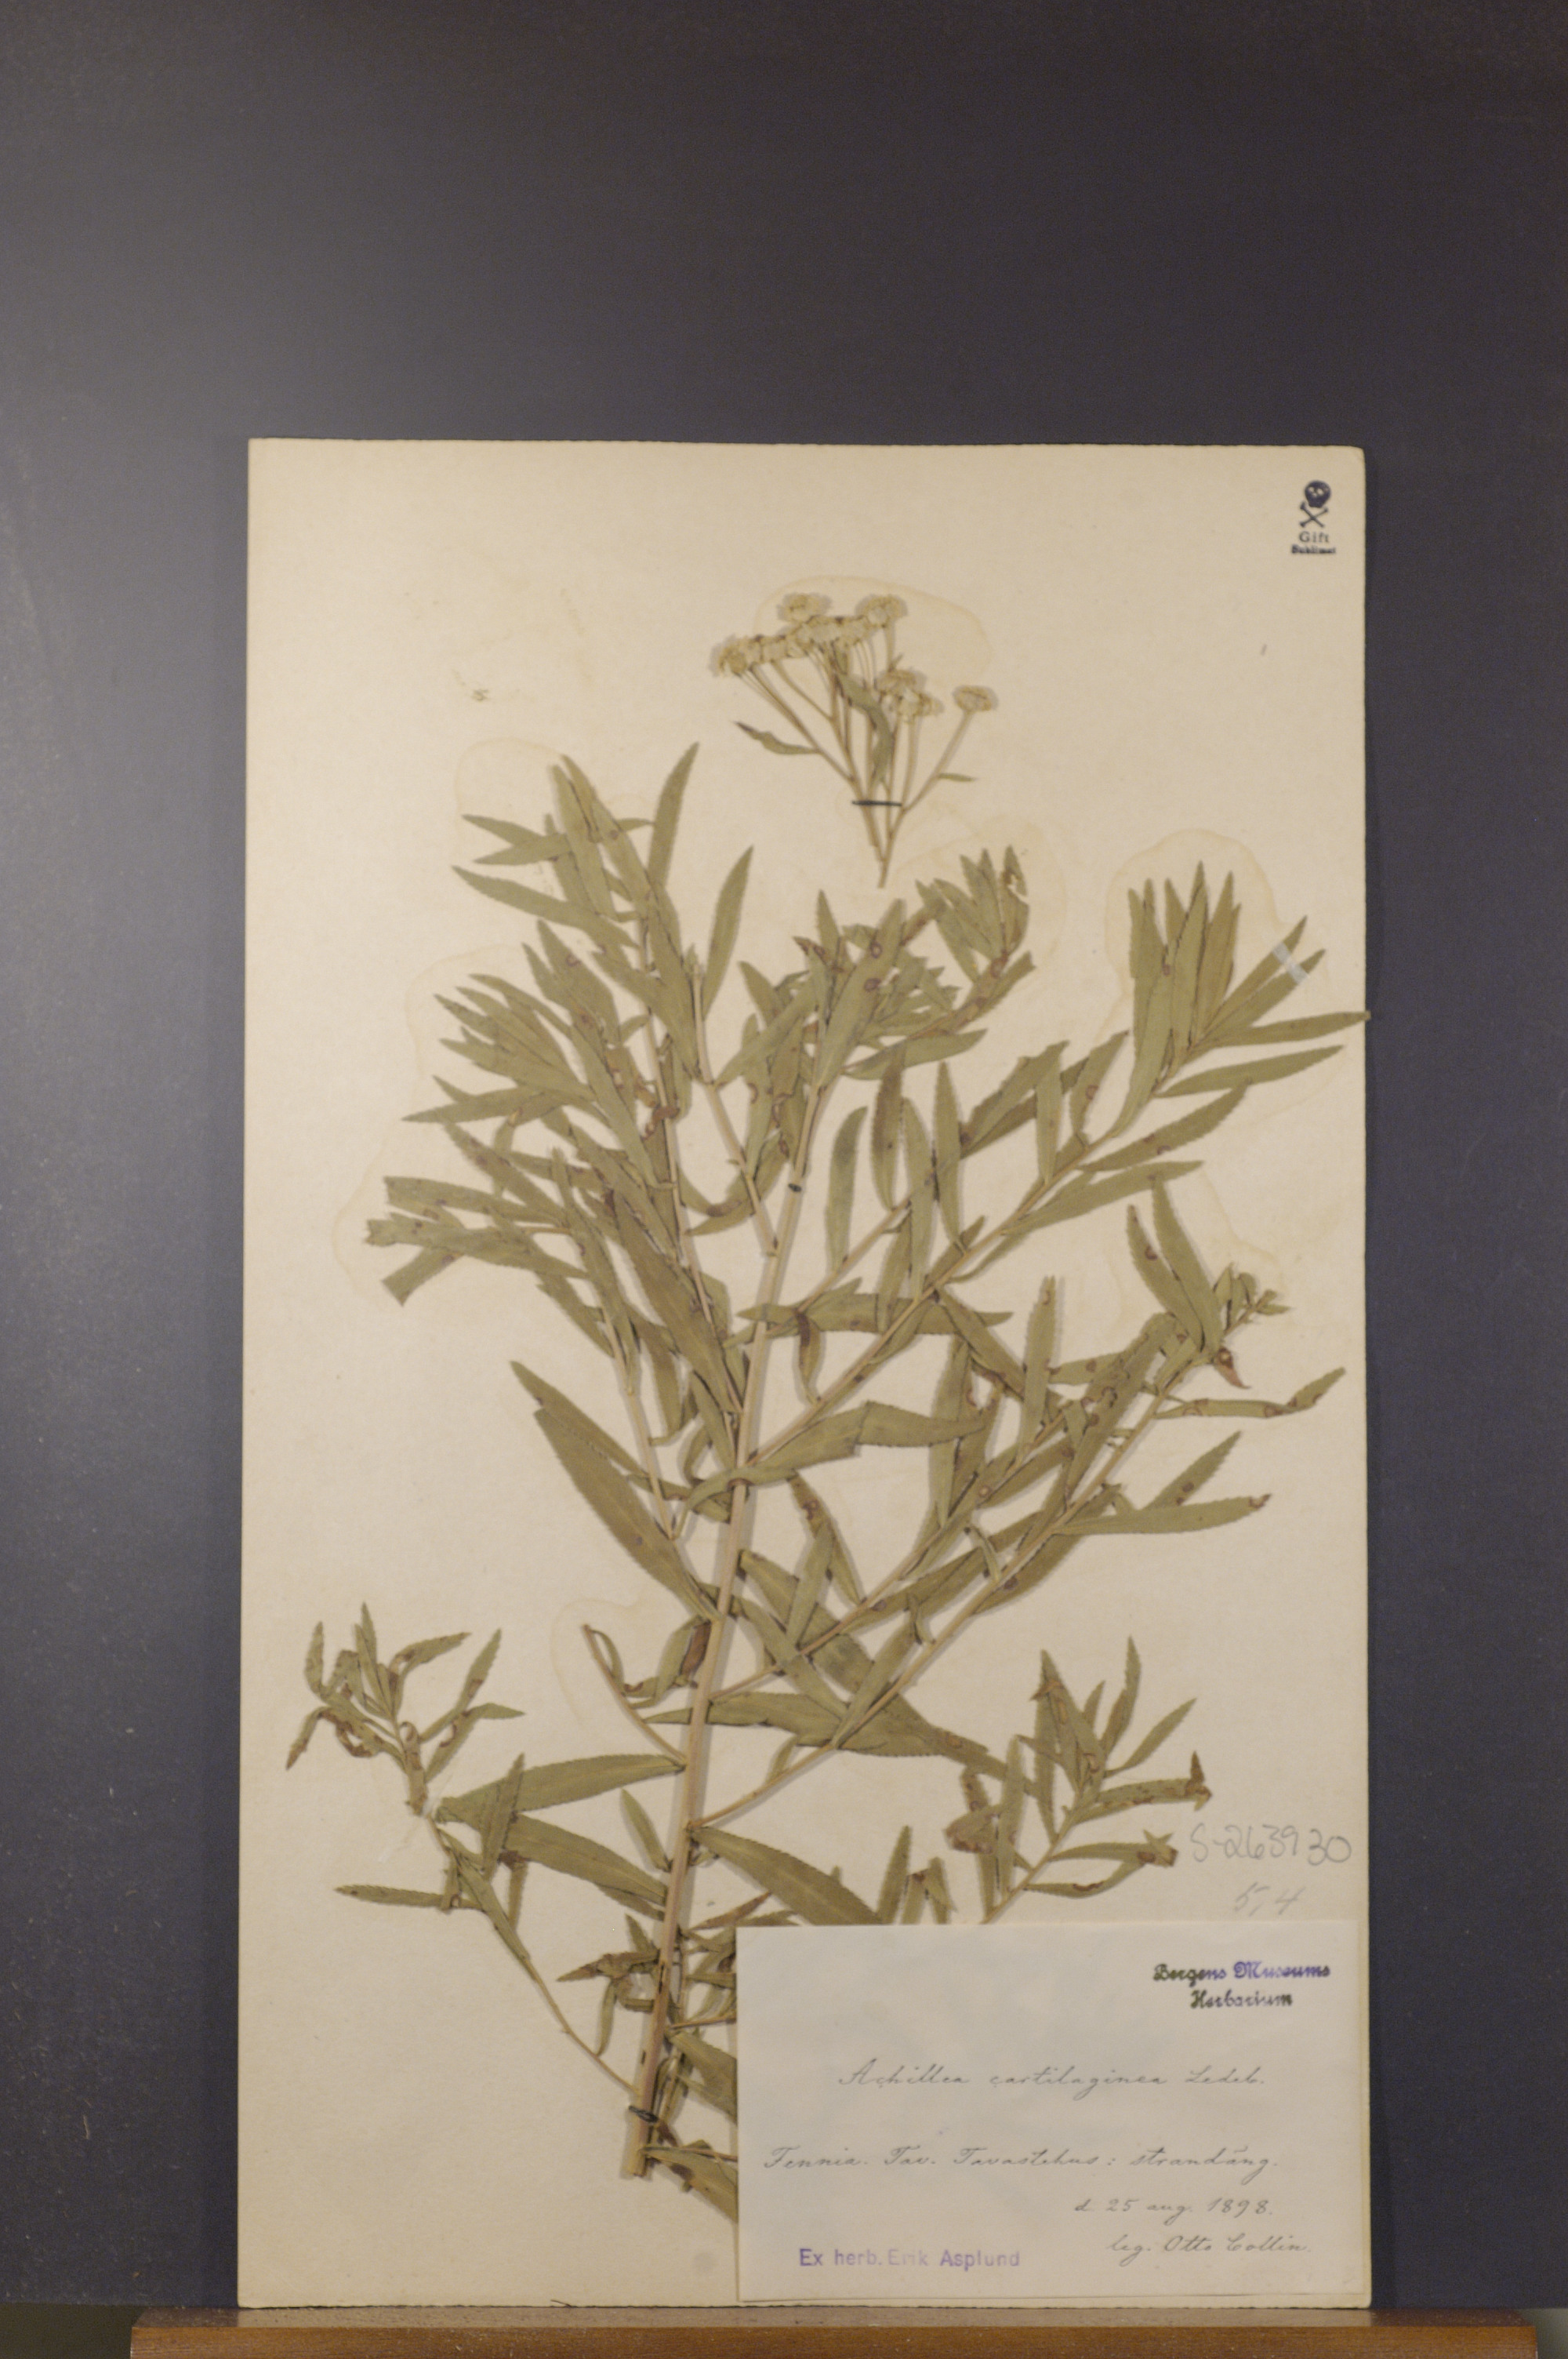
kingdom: Plantae
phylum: Tracheophyta
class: Magnoliopsida
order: Asterales
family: Asteraceae
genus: Achillea
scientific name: Achillea salicifolia
